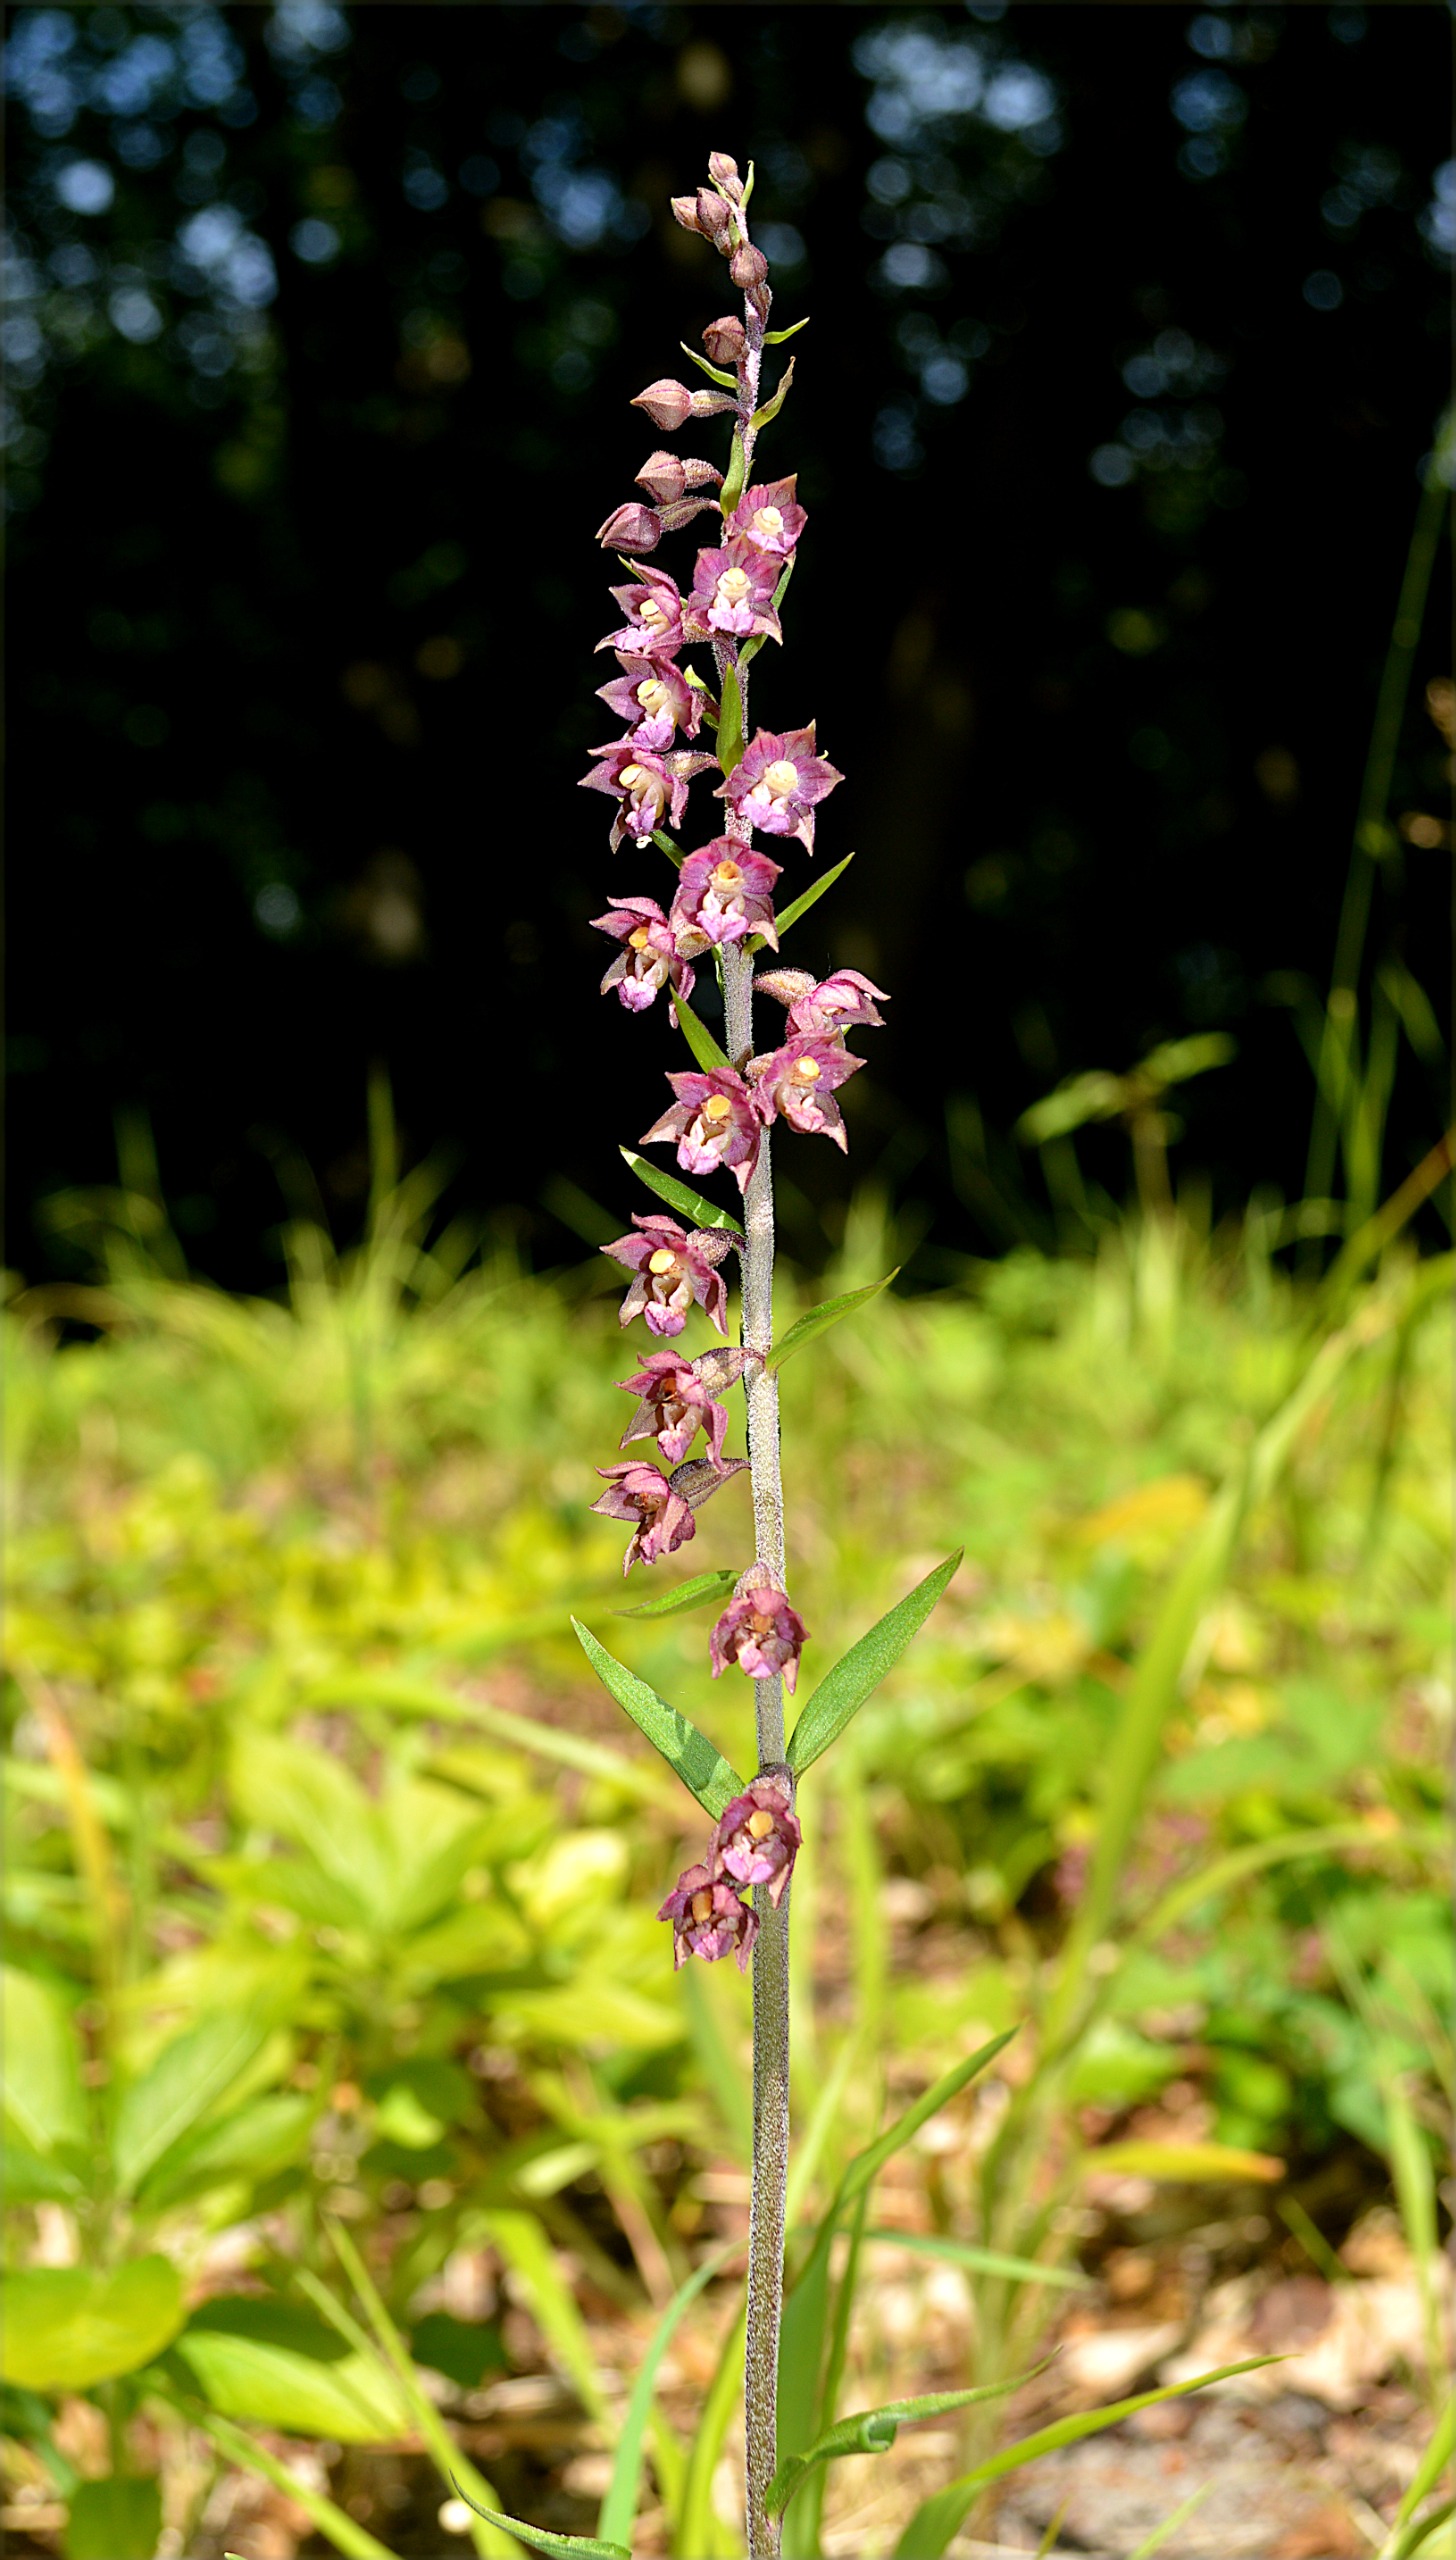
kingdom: Plantae
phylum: Tracheophyta
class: Liliopsida
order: Asparagales
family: Orchidaceae
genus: Epipactis
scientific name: Epipactis atrorubens
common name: Rød hullæbe
